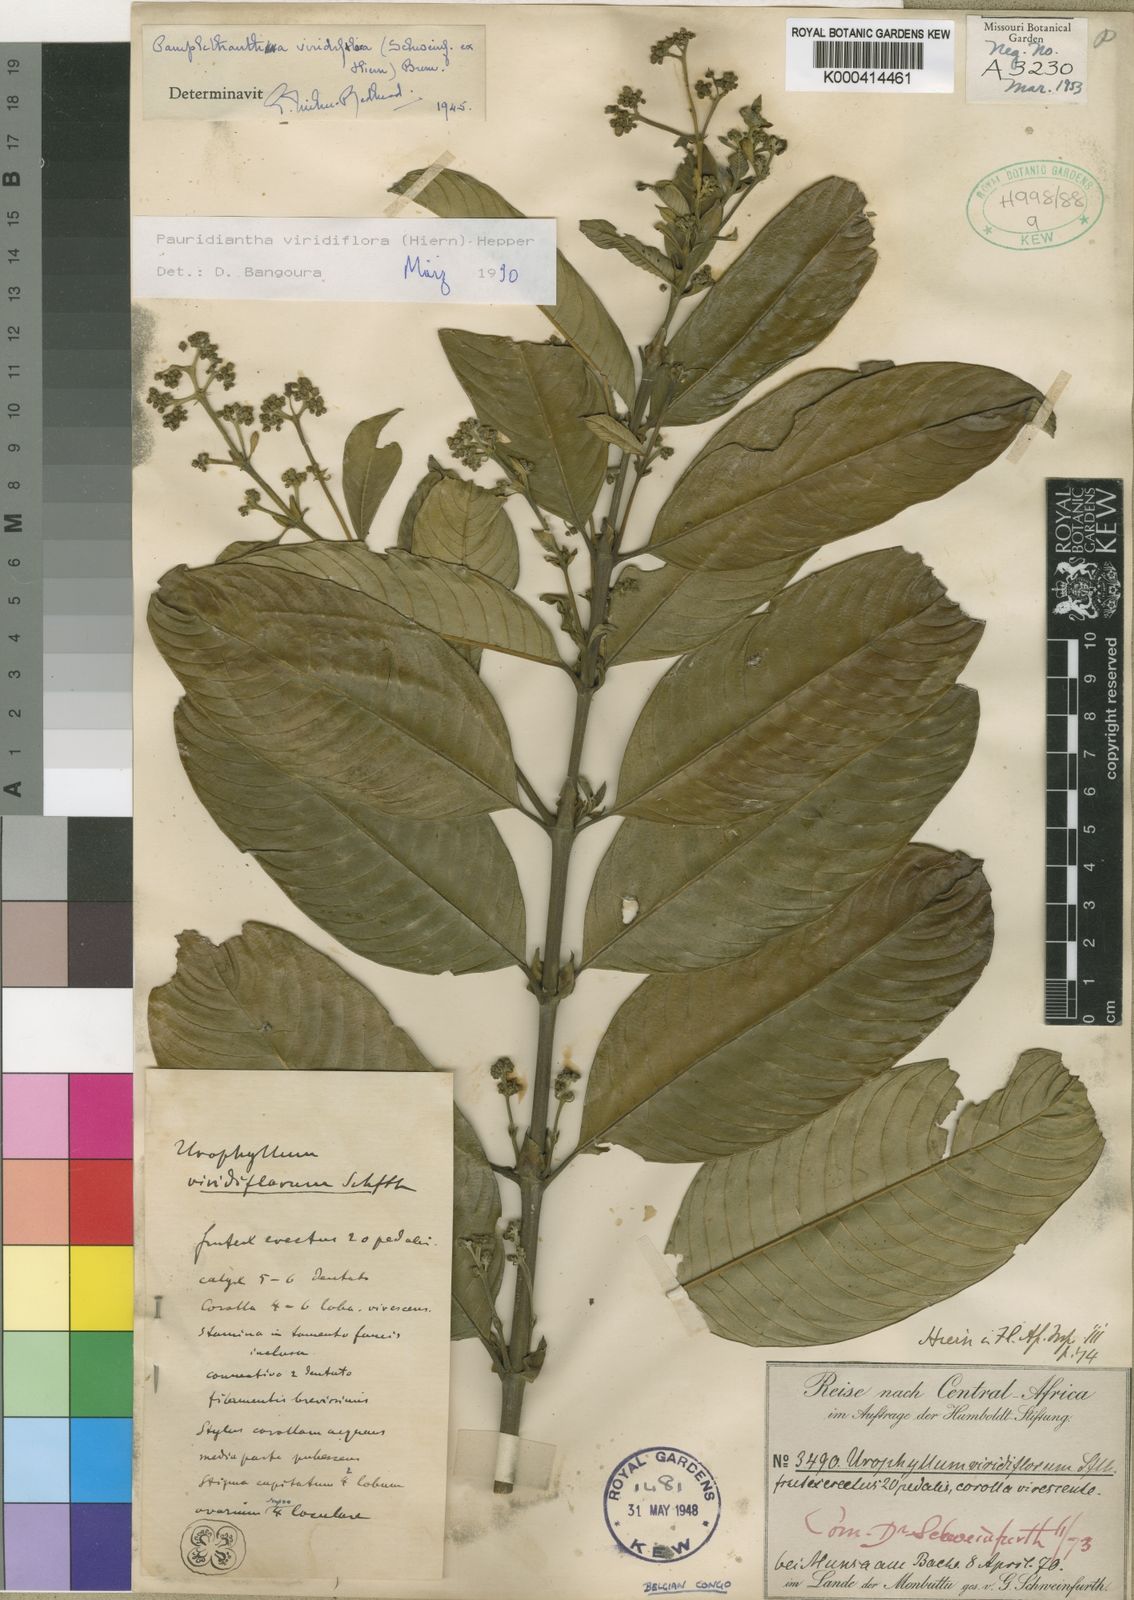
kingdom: Plantae
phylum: Tracheophyta
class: Magnoliopsida
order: Gentianales
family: Rubiaceae
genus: Pauridiantha
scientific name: Pauridiantha viridiflora
